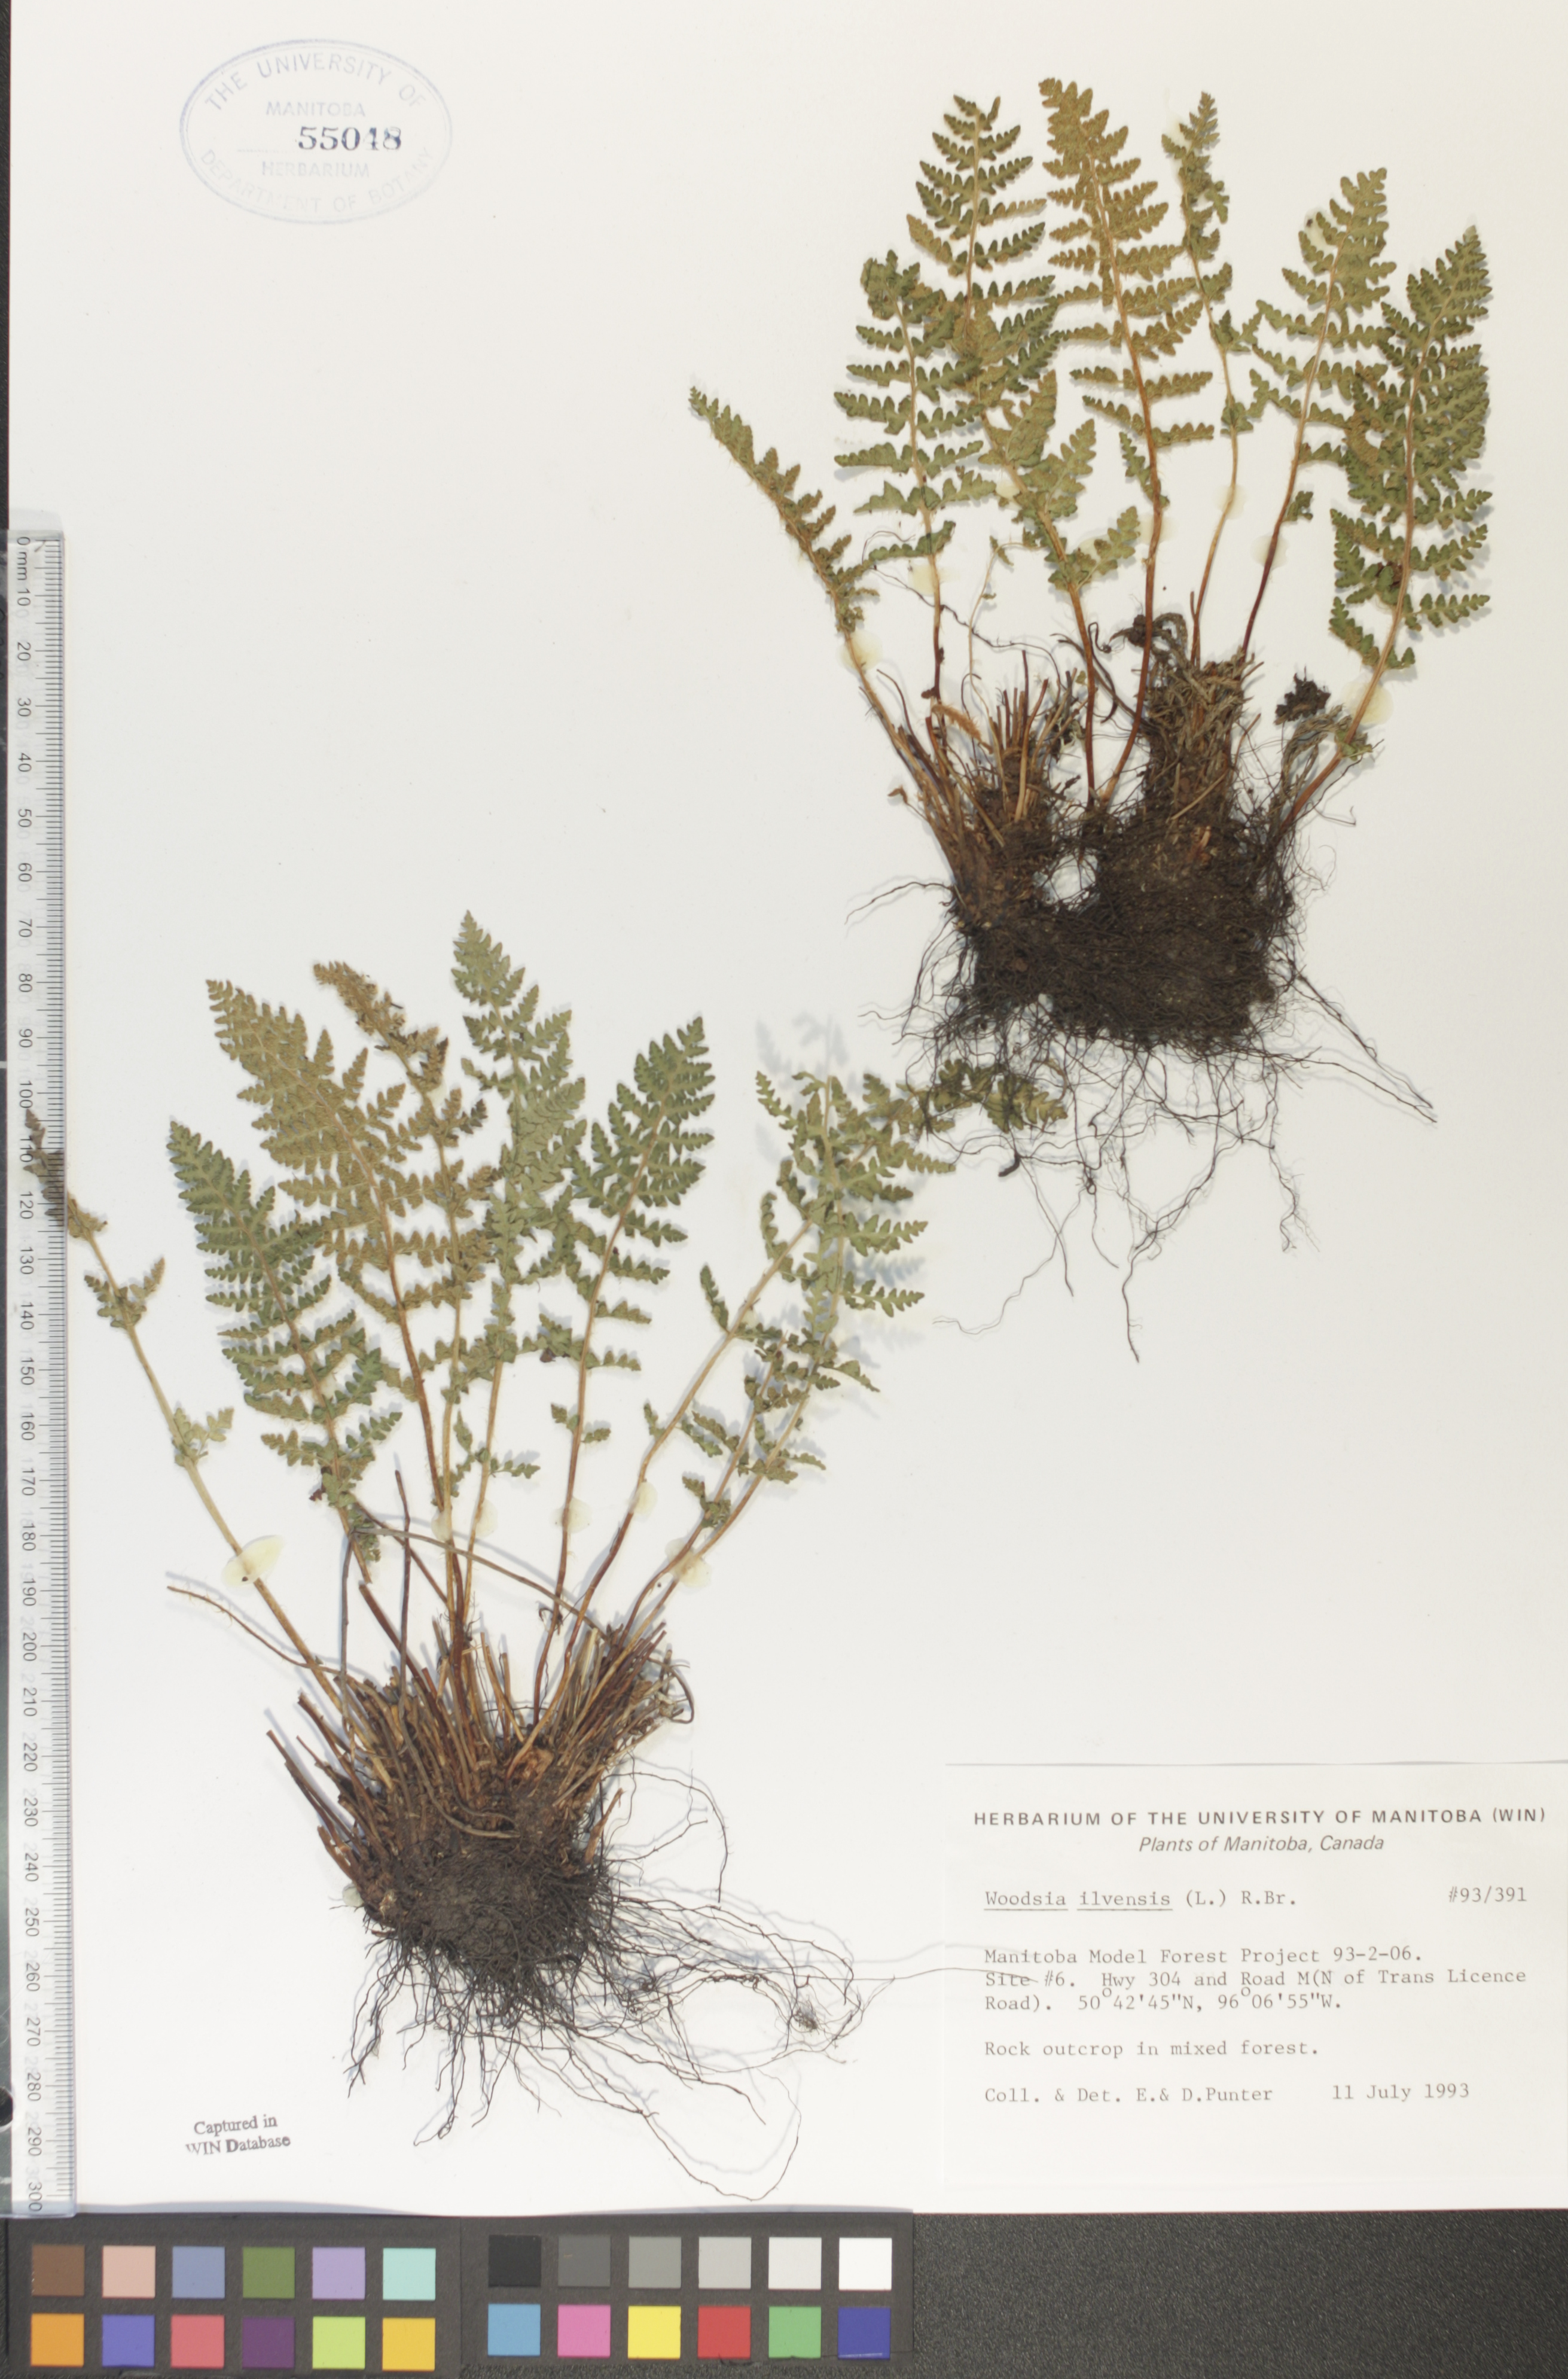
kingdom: Plantae
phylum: Tracheophyta
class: Polypodiopsida
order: Polypodiales
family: Woodsiaceae
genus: Woodsia
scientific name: Woodsia ilvensis
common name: Fragrant woodsia
